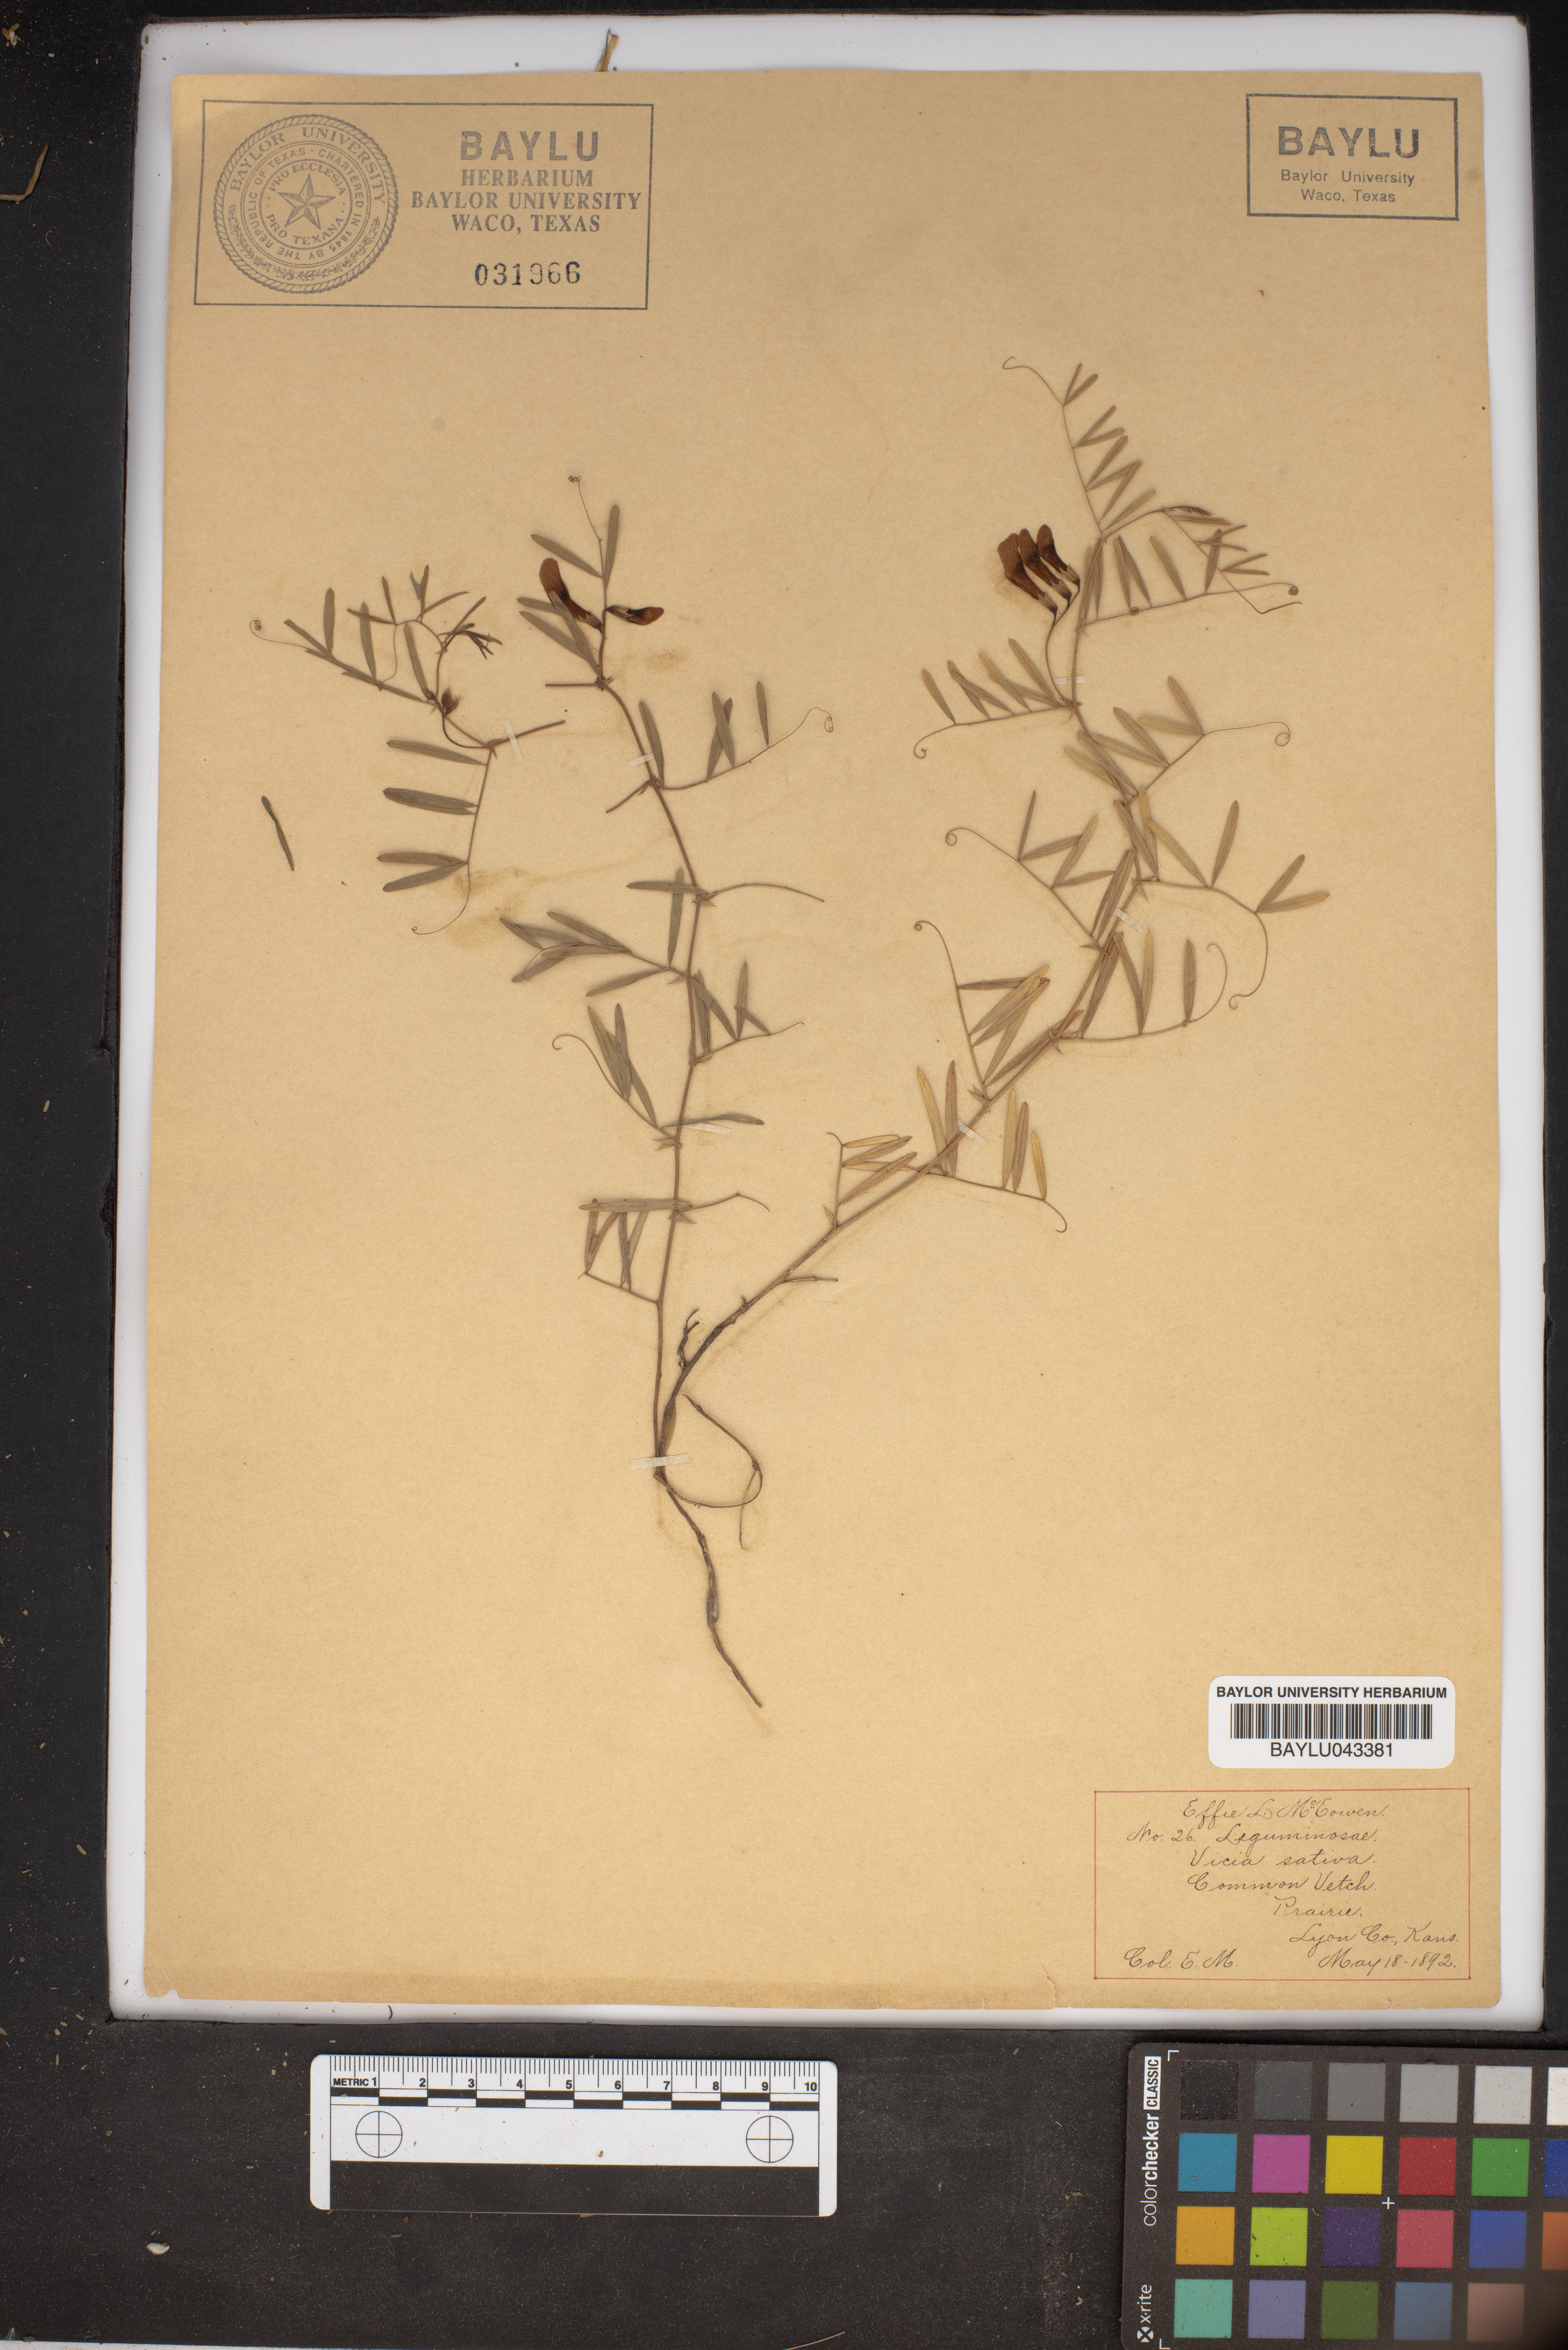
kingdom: Plantae
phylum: Tracheophyta
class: Magnoliopsida
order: Fabales
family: Fabaceae
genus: Vicia
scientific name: Vicia sativa
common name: Garden vetch
